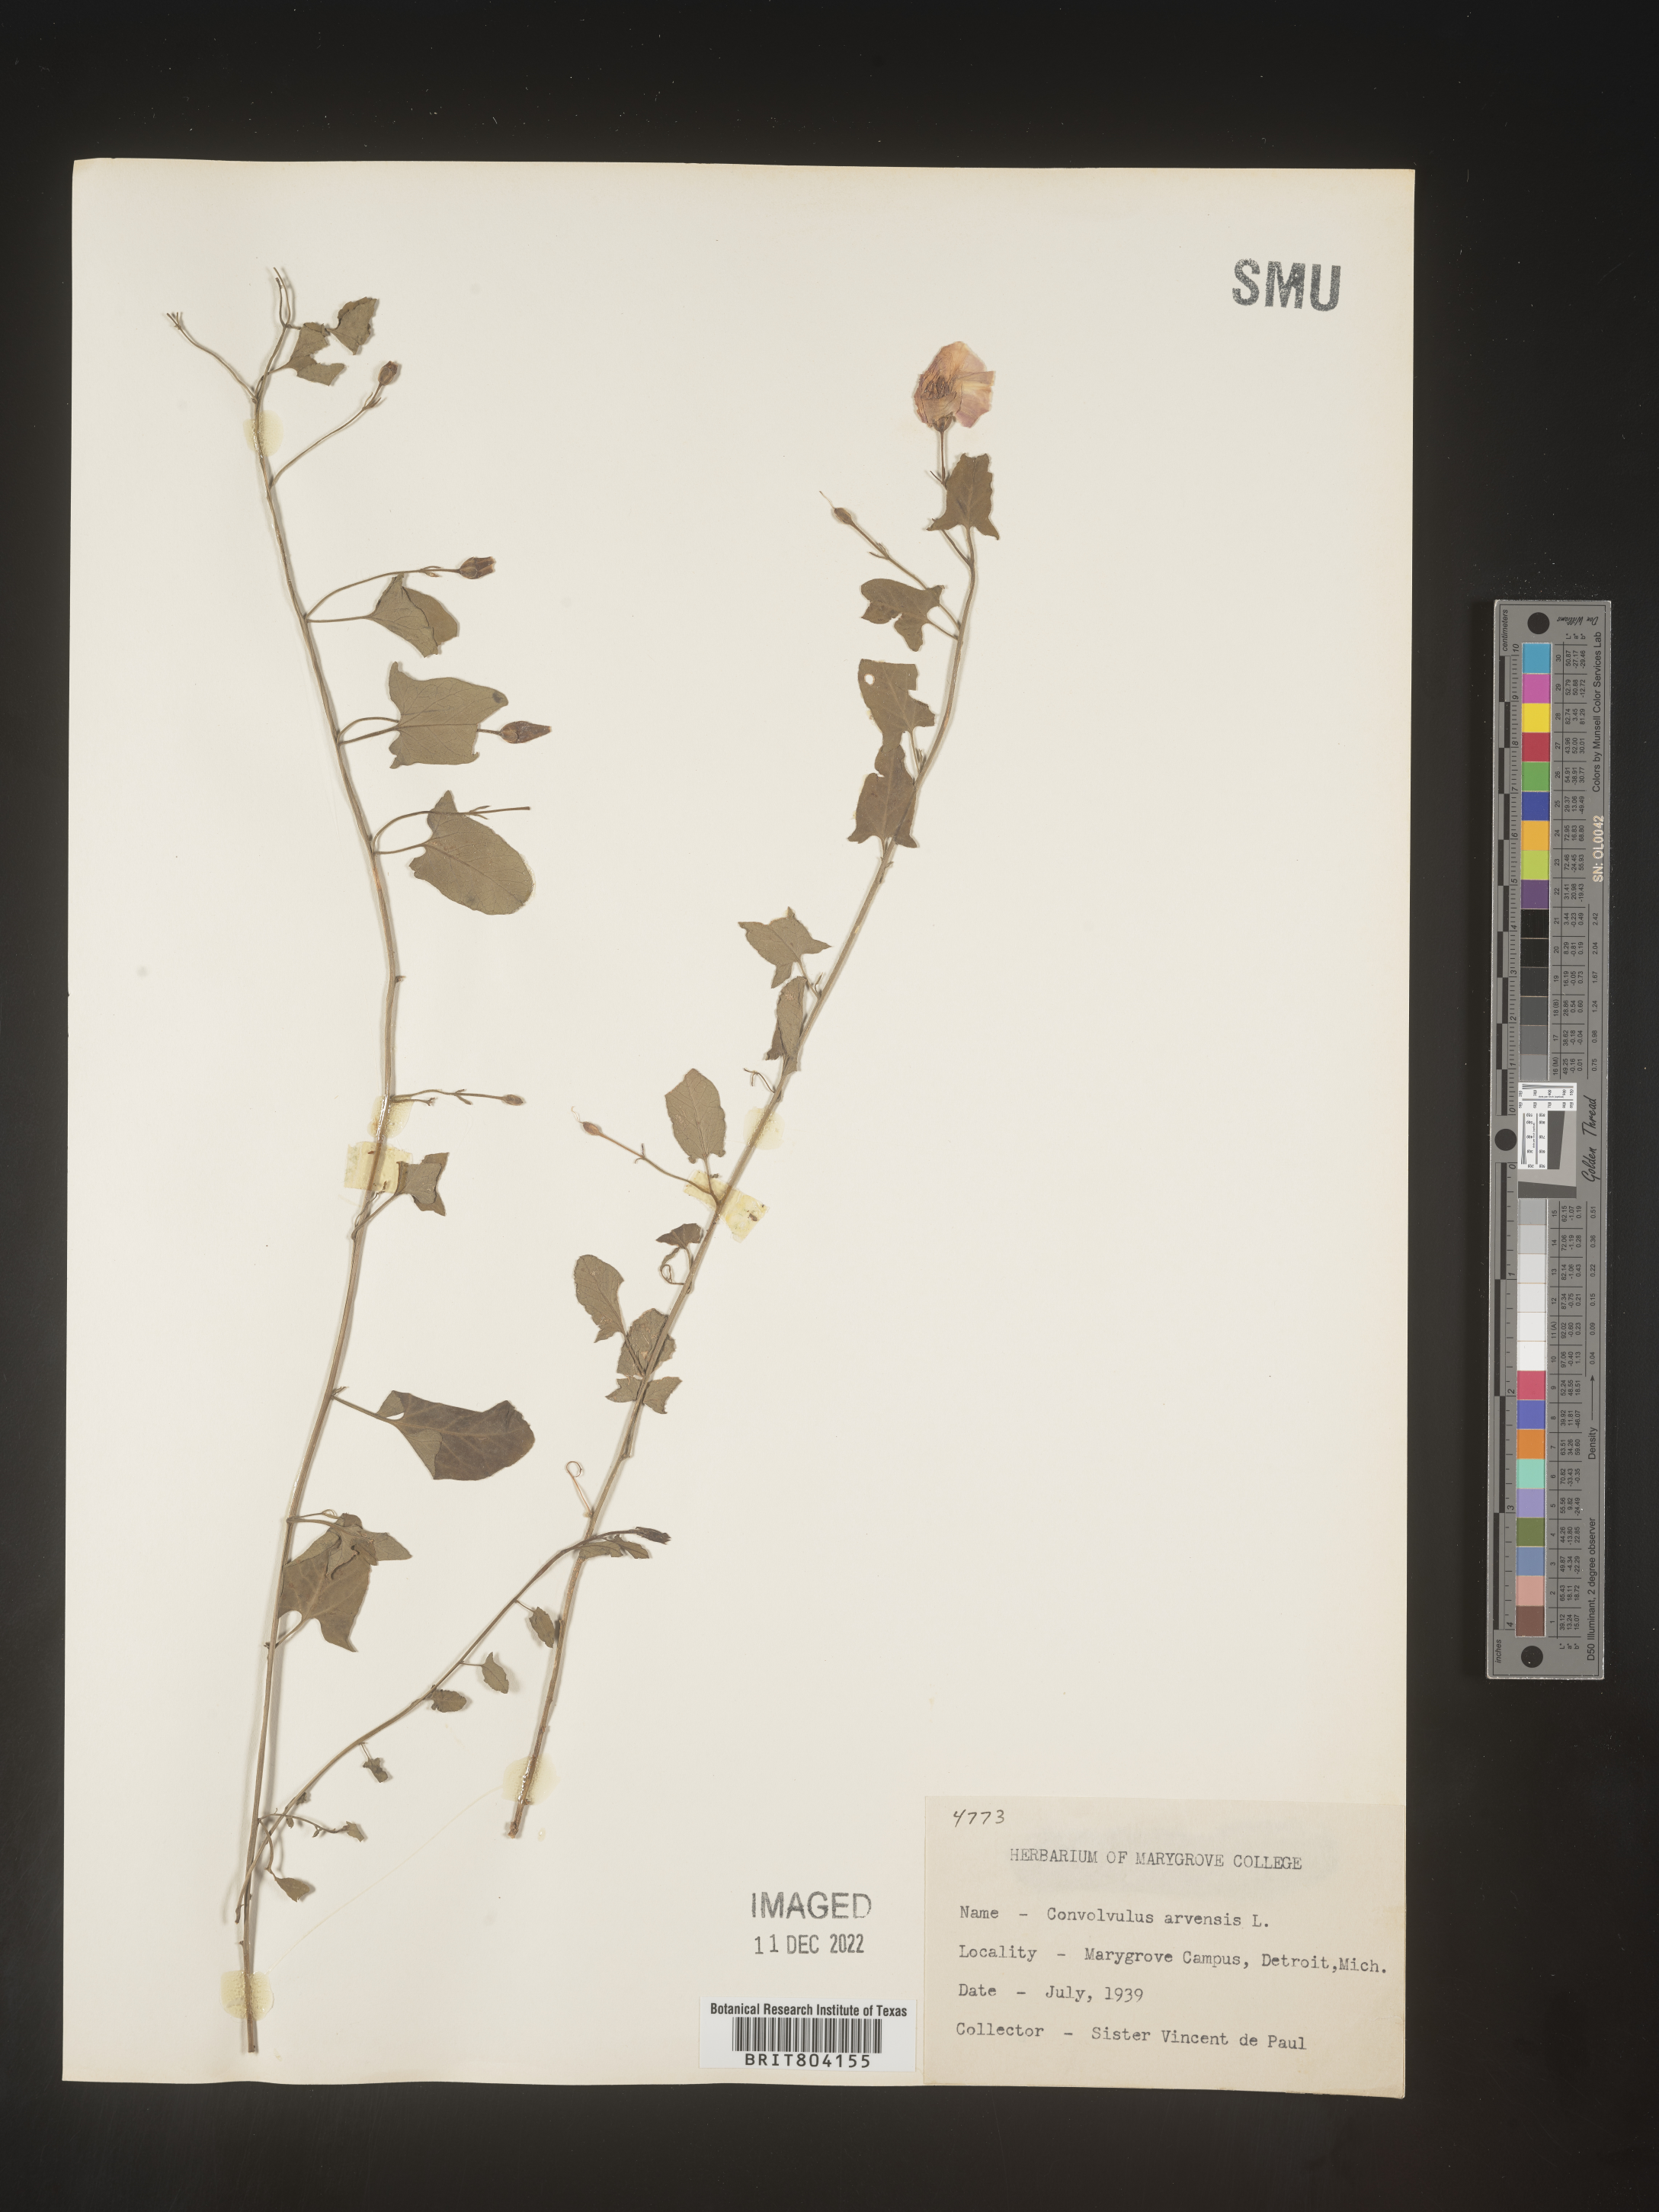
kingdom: Plantae
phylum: Tracheophyta
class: Magnoliopsida
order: Solanales
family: Convolvulaceae
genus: Convolvulus
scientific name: Convolvulus arvensis
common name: Field bindweed
